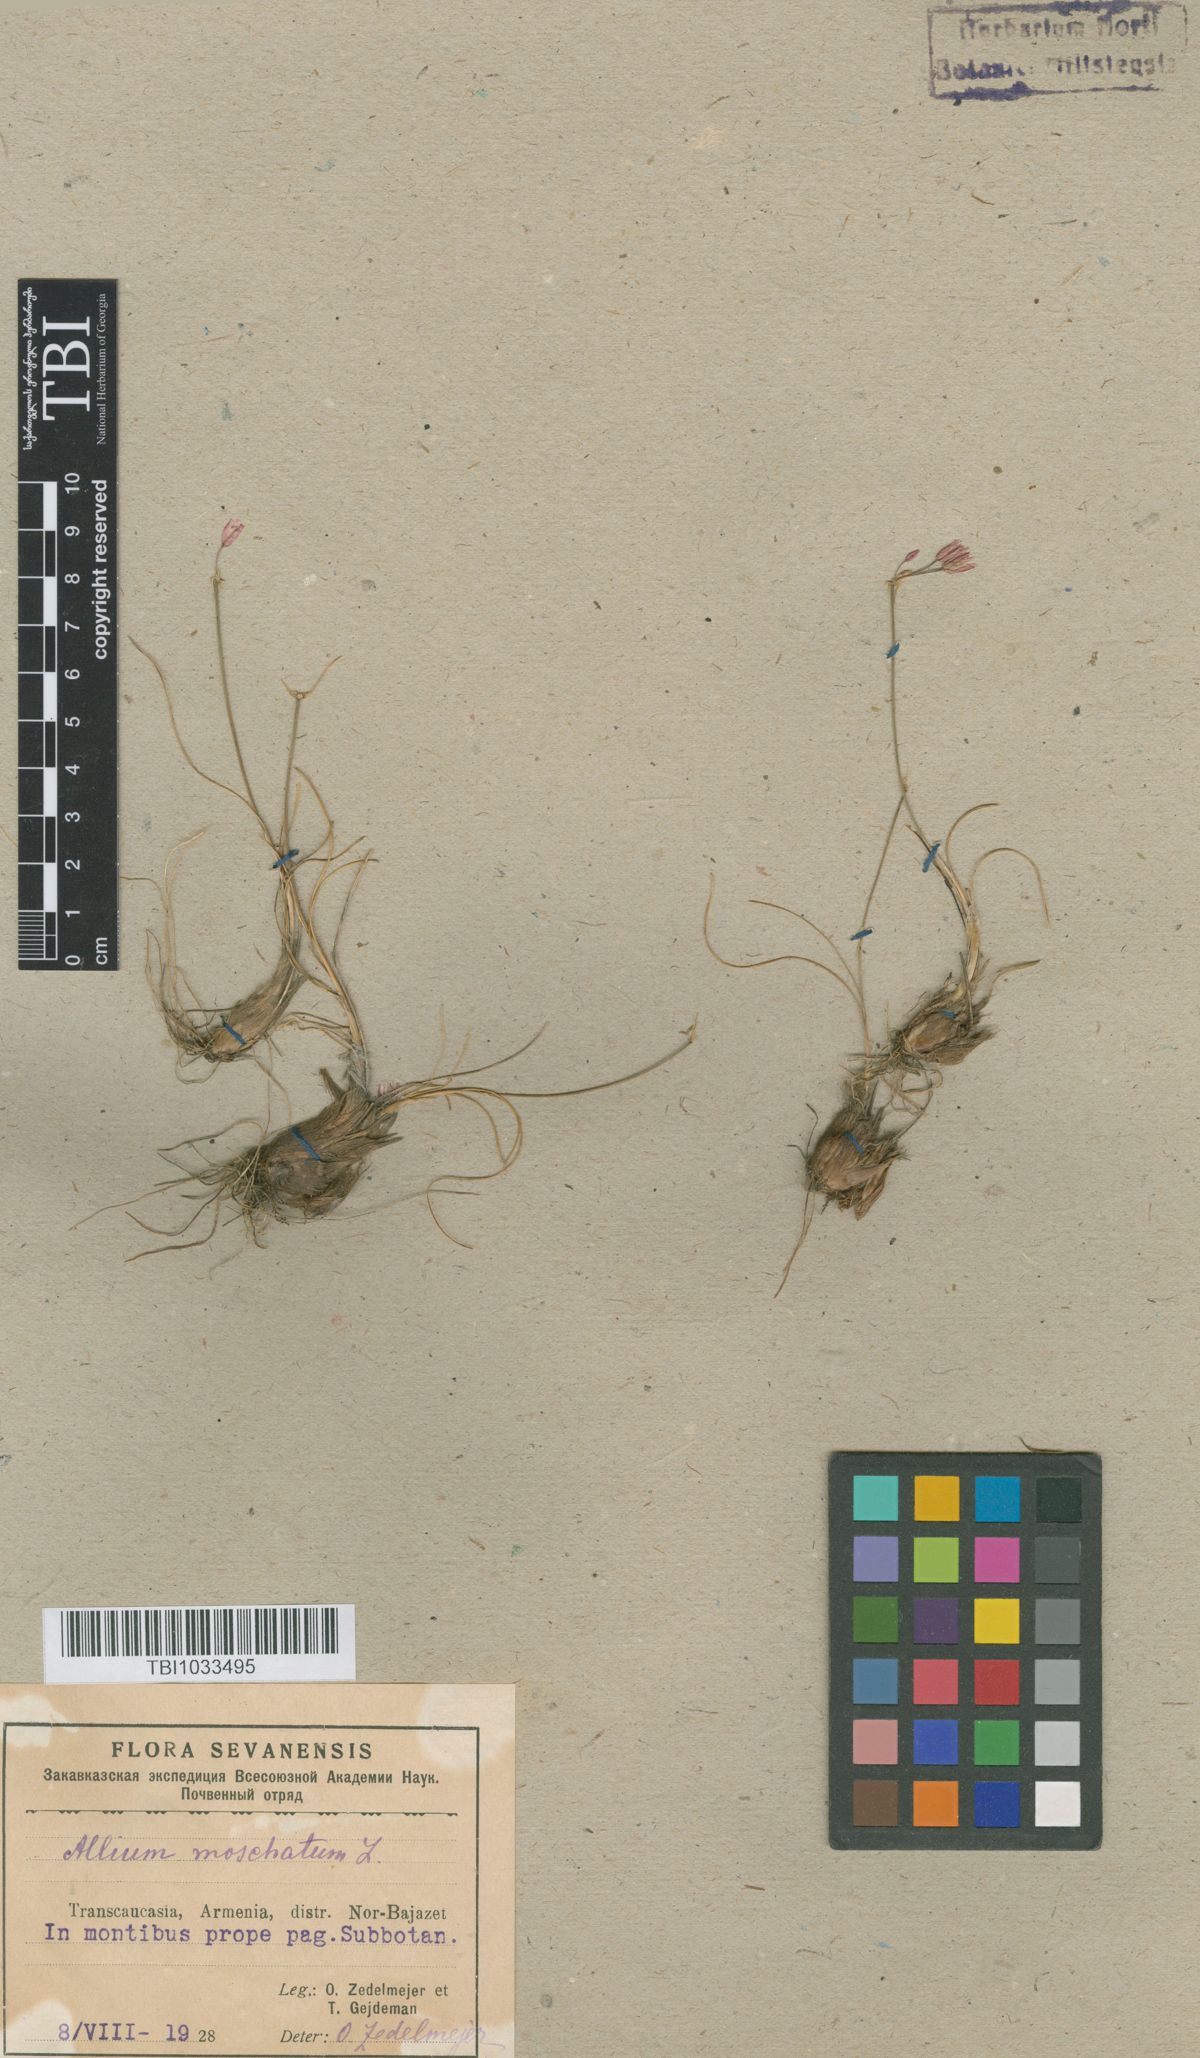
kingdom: Plantae
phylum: Tracheophyta
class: Liliopsida
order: Asparagales
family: Amaryllidaceae
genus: Allium
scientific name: Allium moschatum
